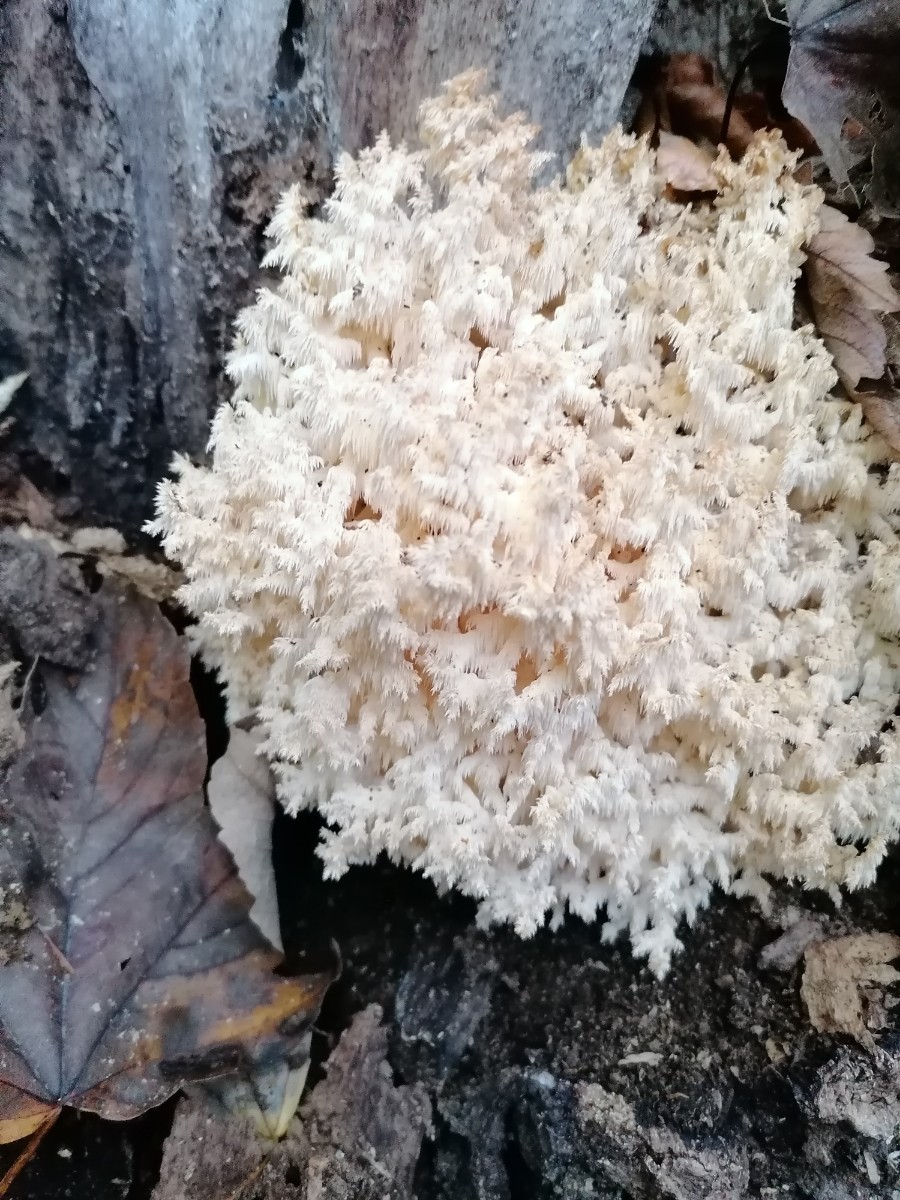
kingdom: Fungi
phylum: Basidiomycota
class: Agaricomycetes
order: Russulales
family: Hericiaceae
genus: Hericium
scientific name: Hericium coralloides
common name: koralpigsvamp
